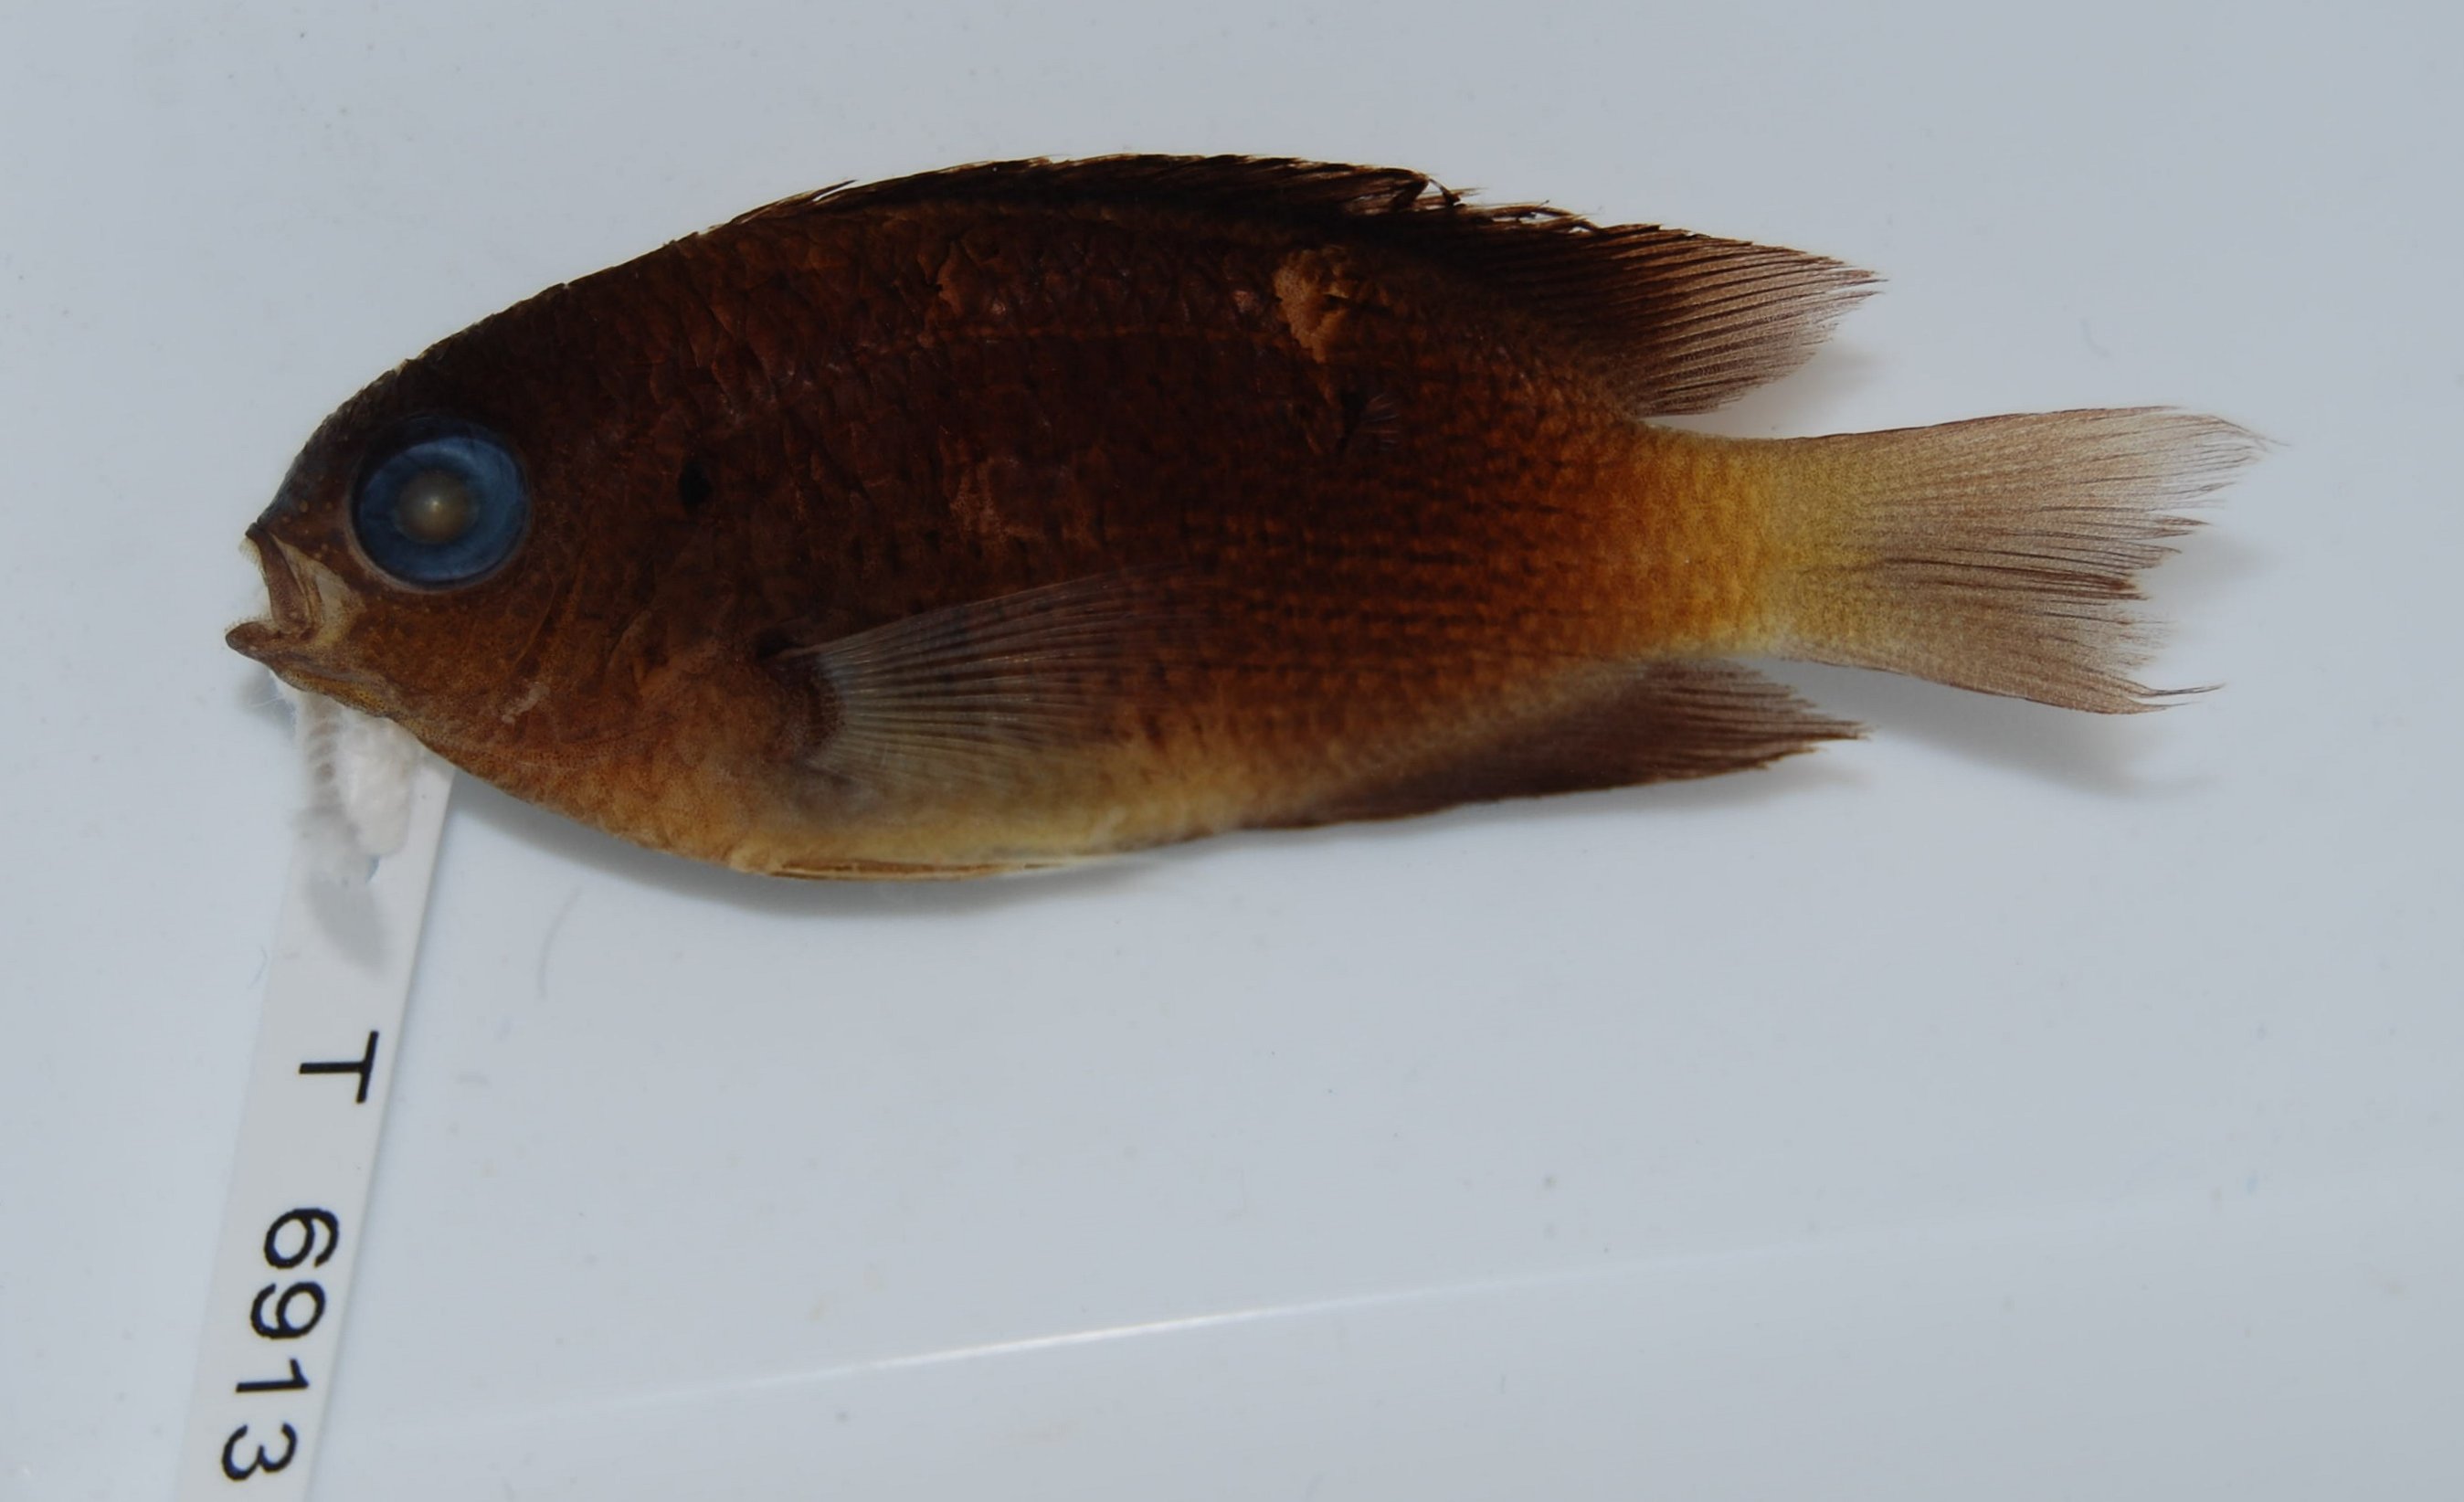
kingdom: Animalia
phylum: Chordata
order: Perciformes
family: Pomacentridae
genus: Pomacentrus
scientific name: Pomacentrus caeruleus
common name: Caerulean damsel
